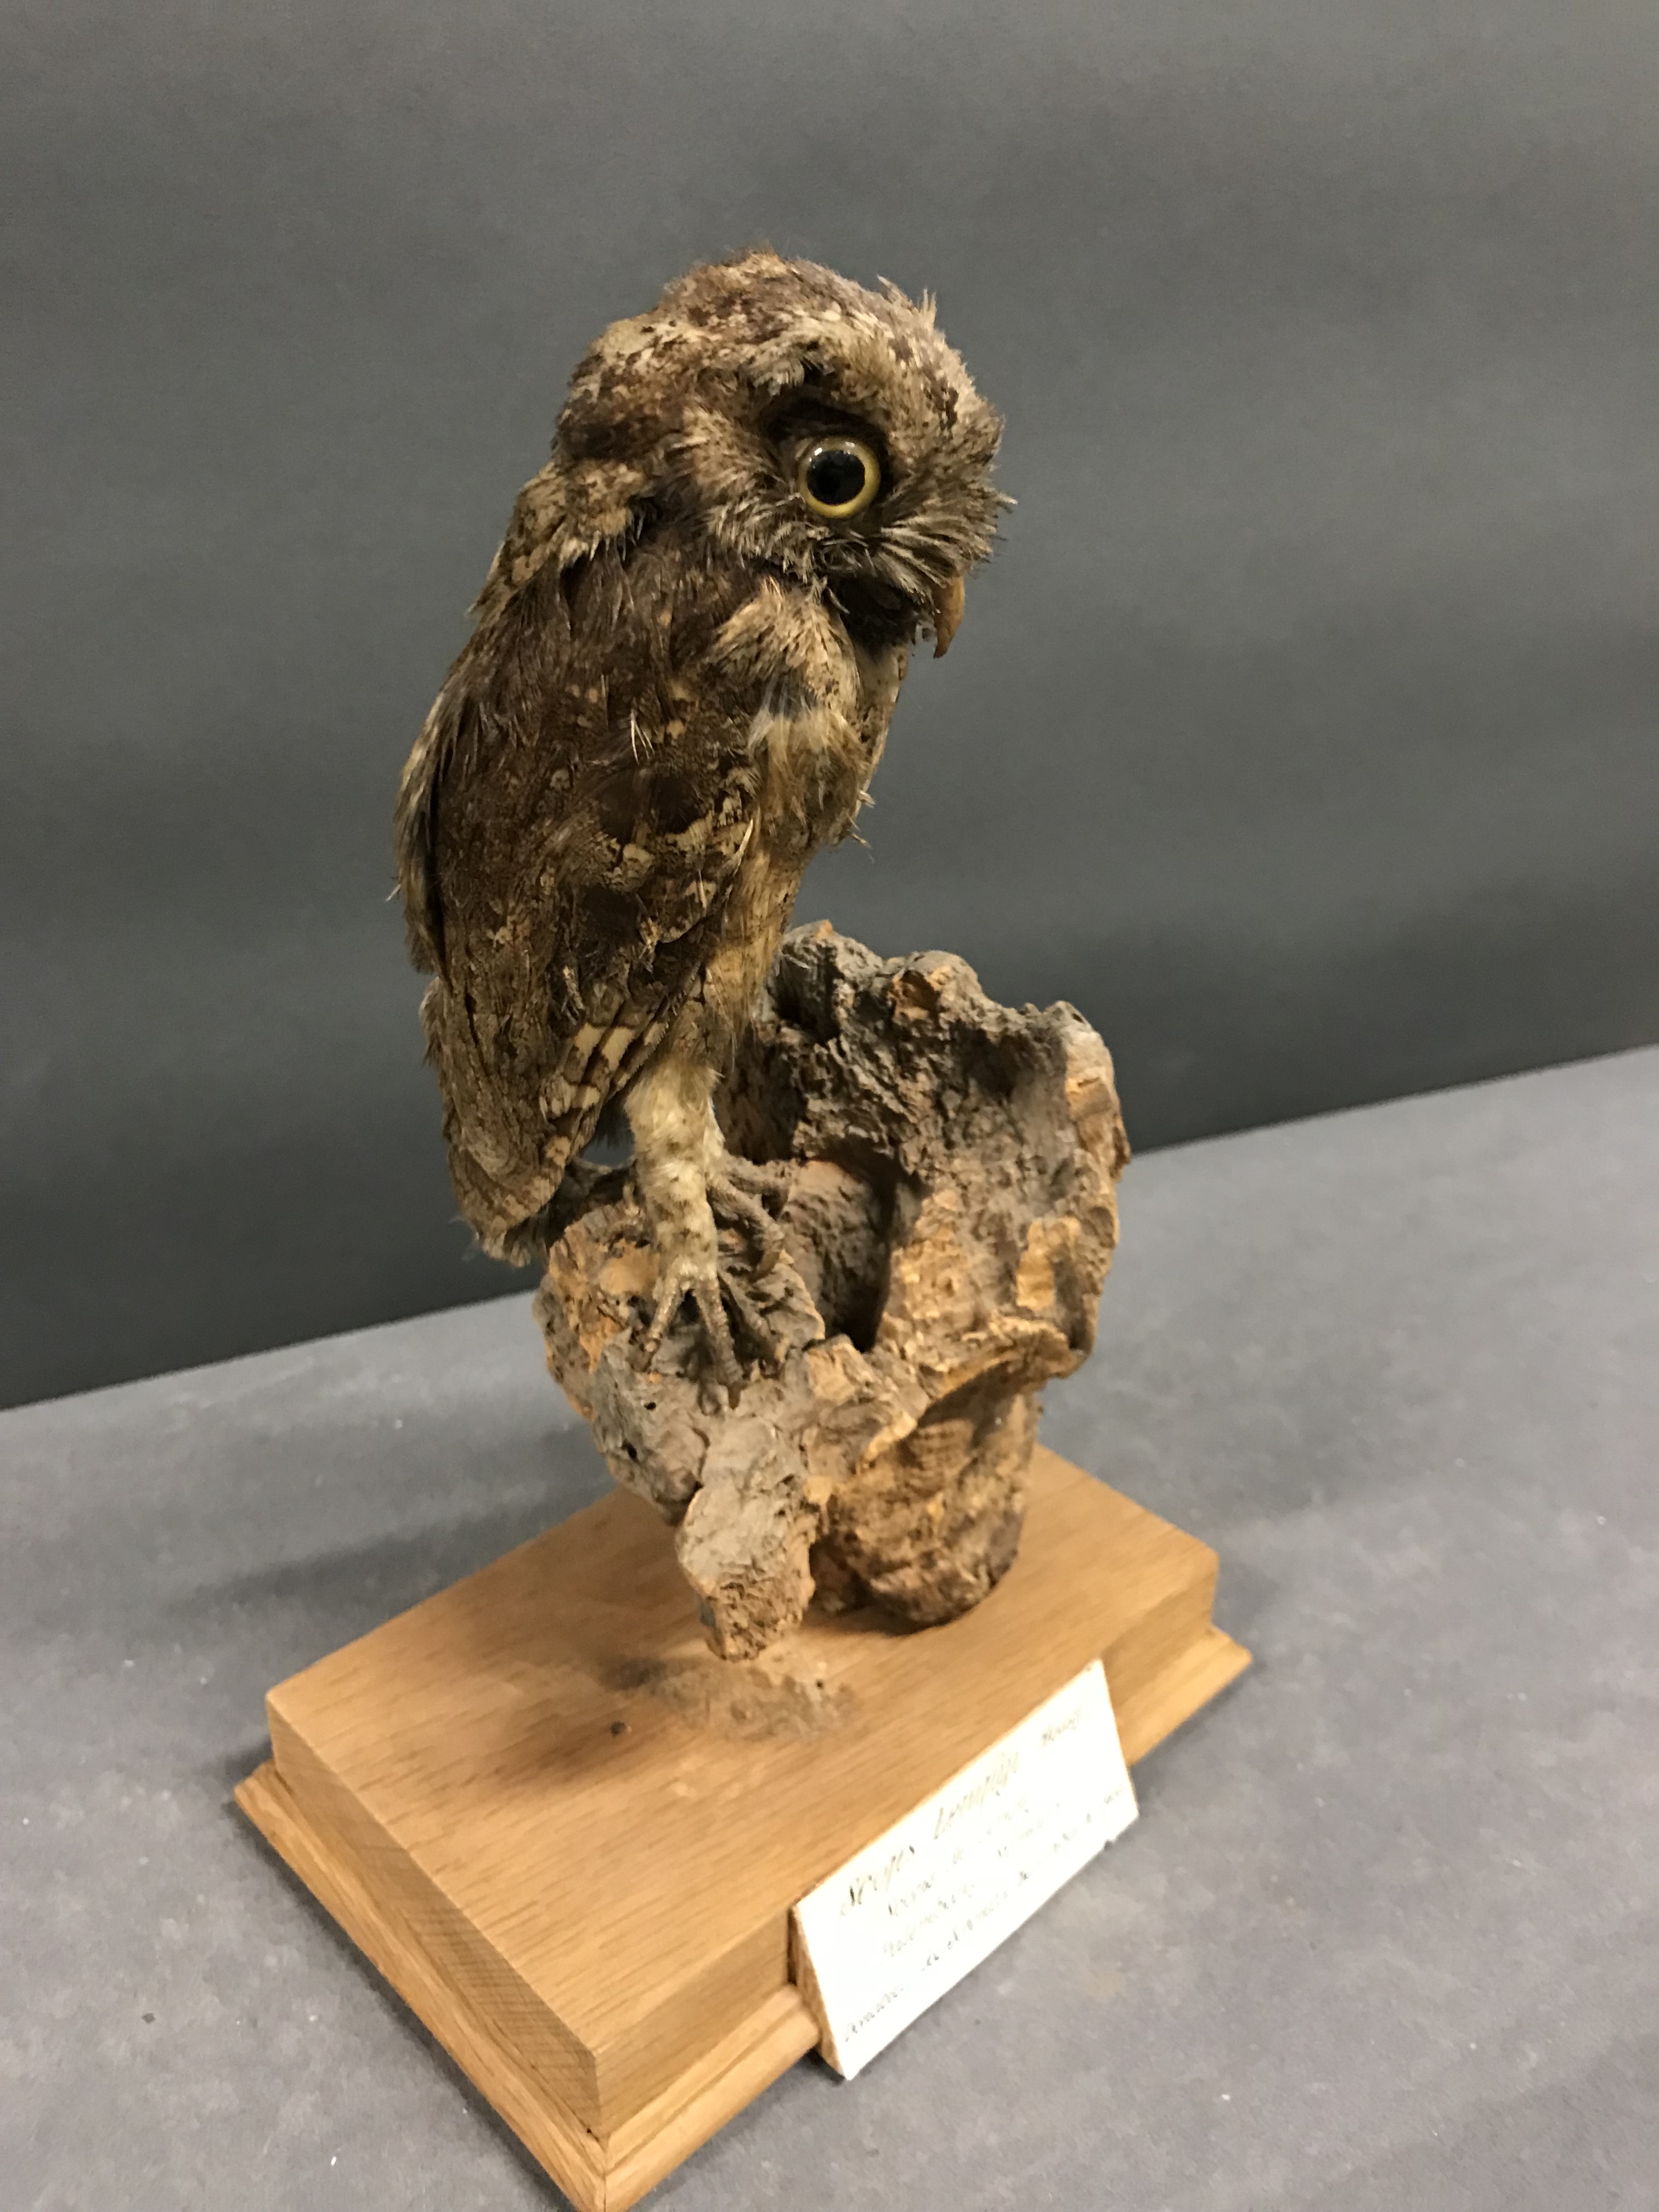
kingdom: Animalia
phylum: Chordata
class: Aves
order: Strigiformes
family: Strigidae
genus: Otus
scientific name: Otus lempiji
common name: Sunda scops-owl
